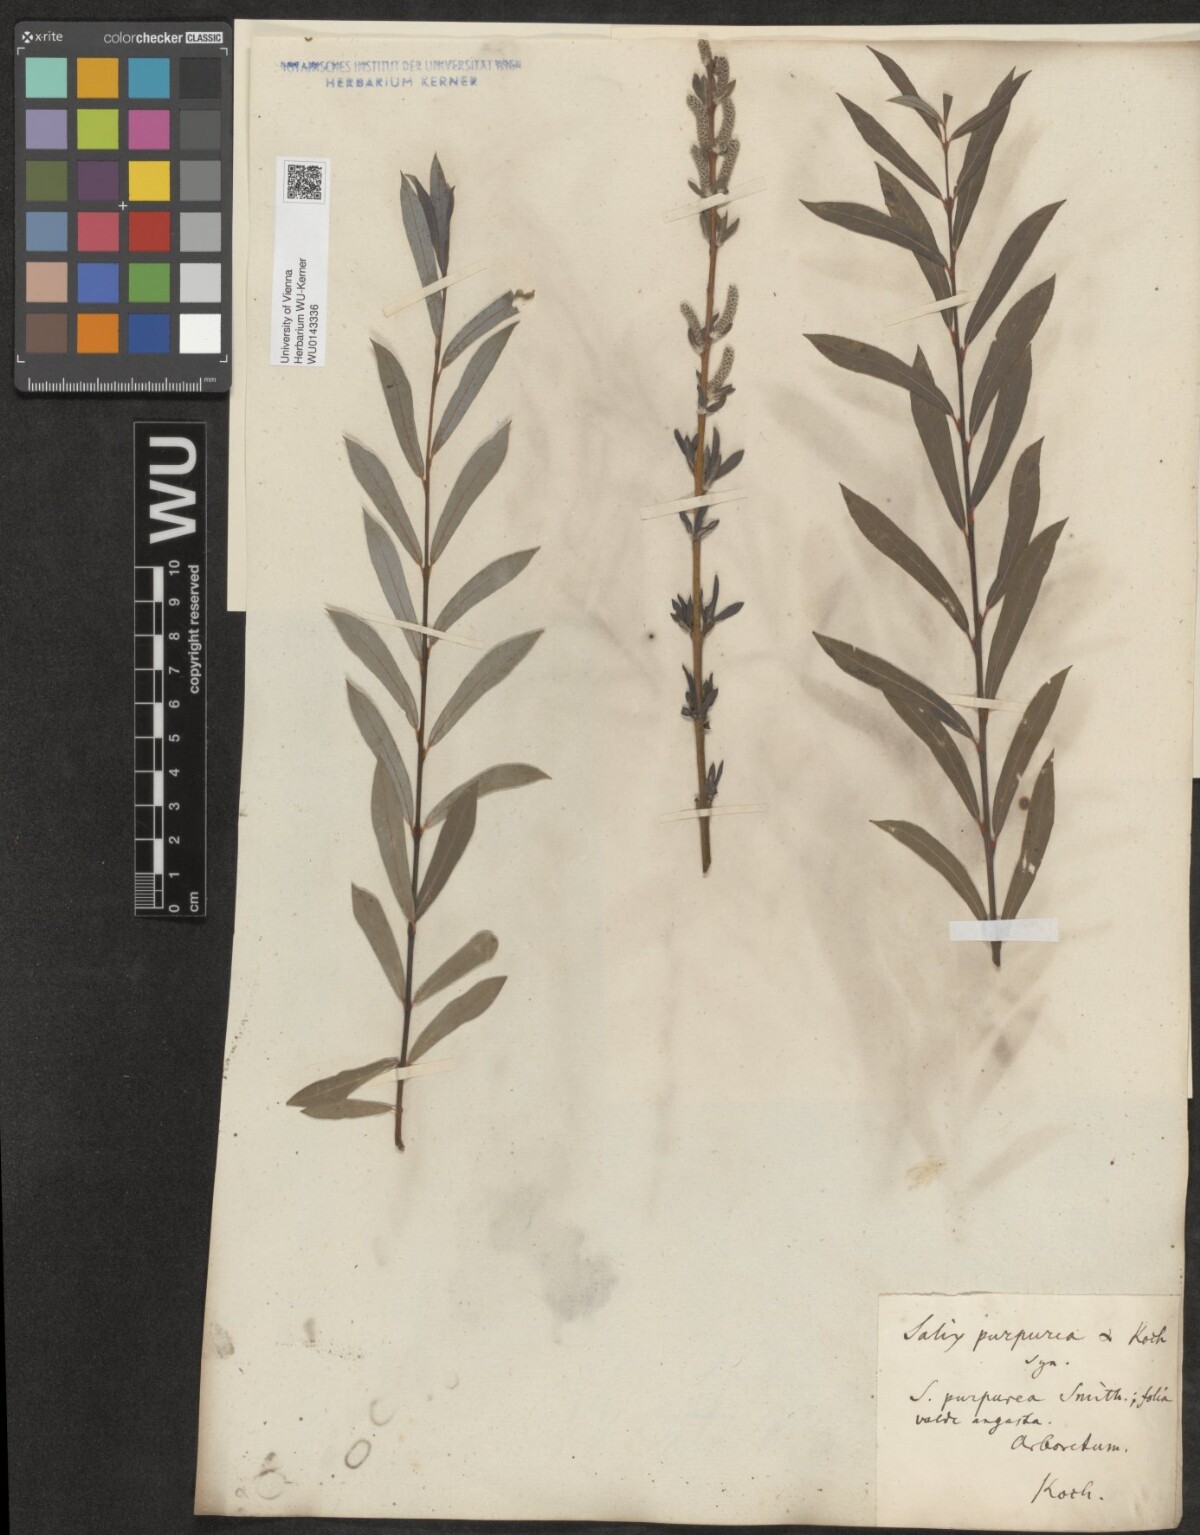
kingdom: Plantae
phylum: Tracheophyta
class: Magnoliopsida
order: Malpighiales
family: Salicaceae
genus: Salix
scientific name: Salix purpurea
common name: Purple willow
